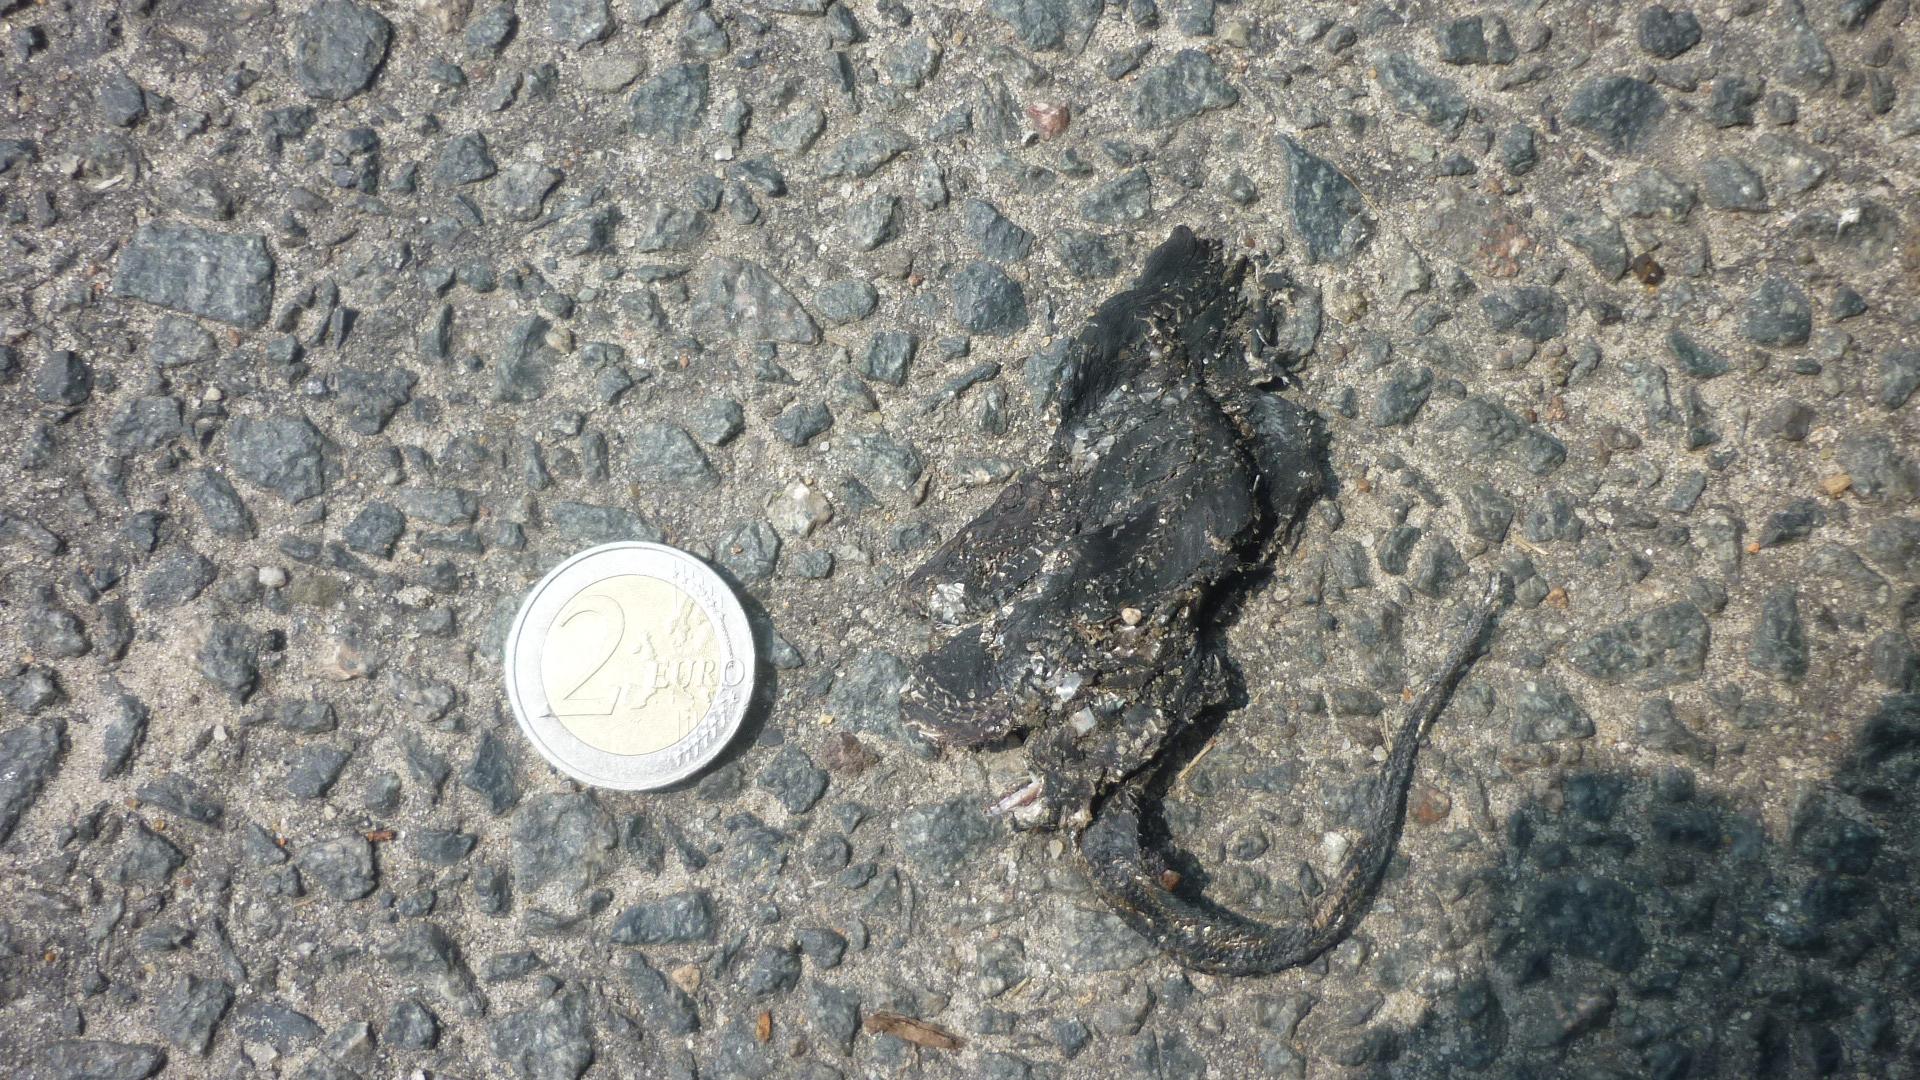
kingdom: Animalia
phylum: Chordata
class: Squamata
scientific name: Squamata
